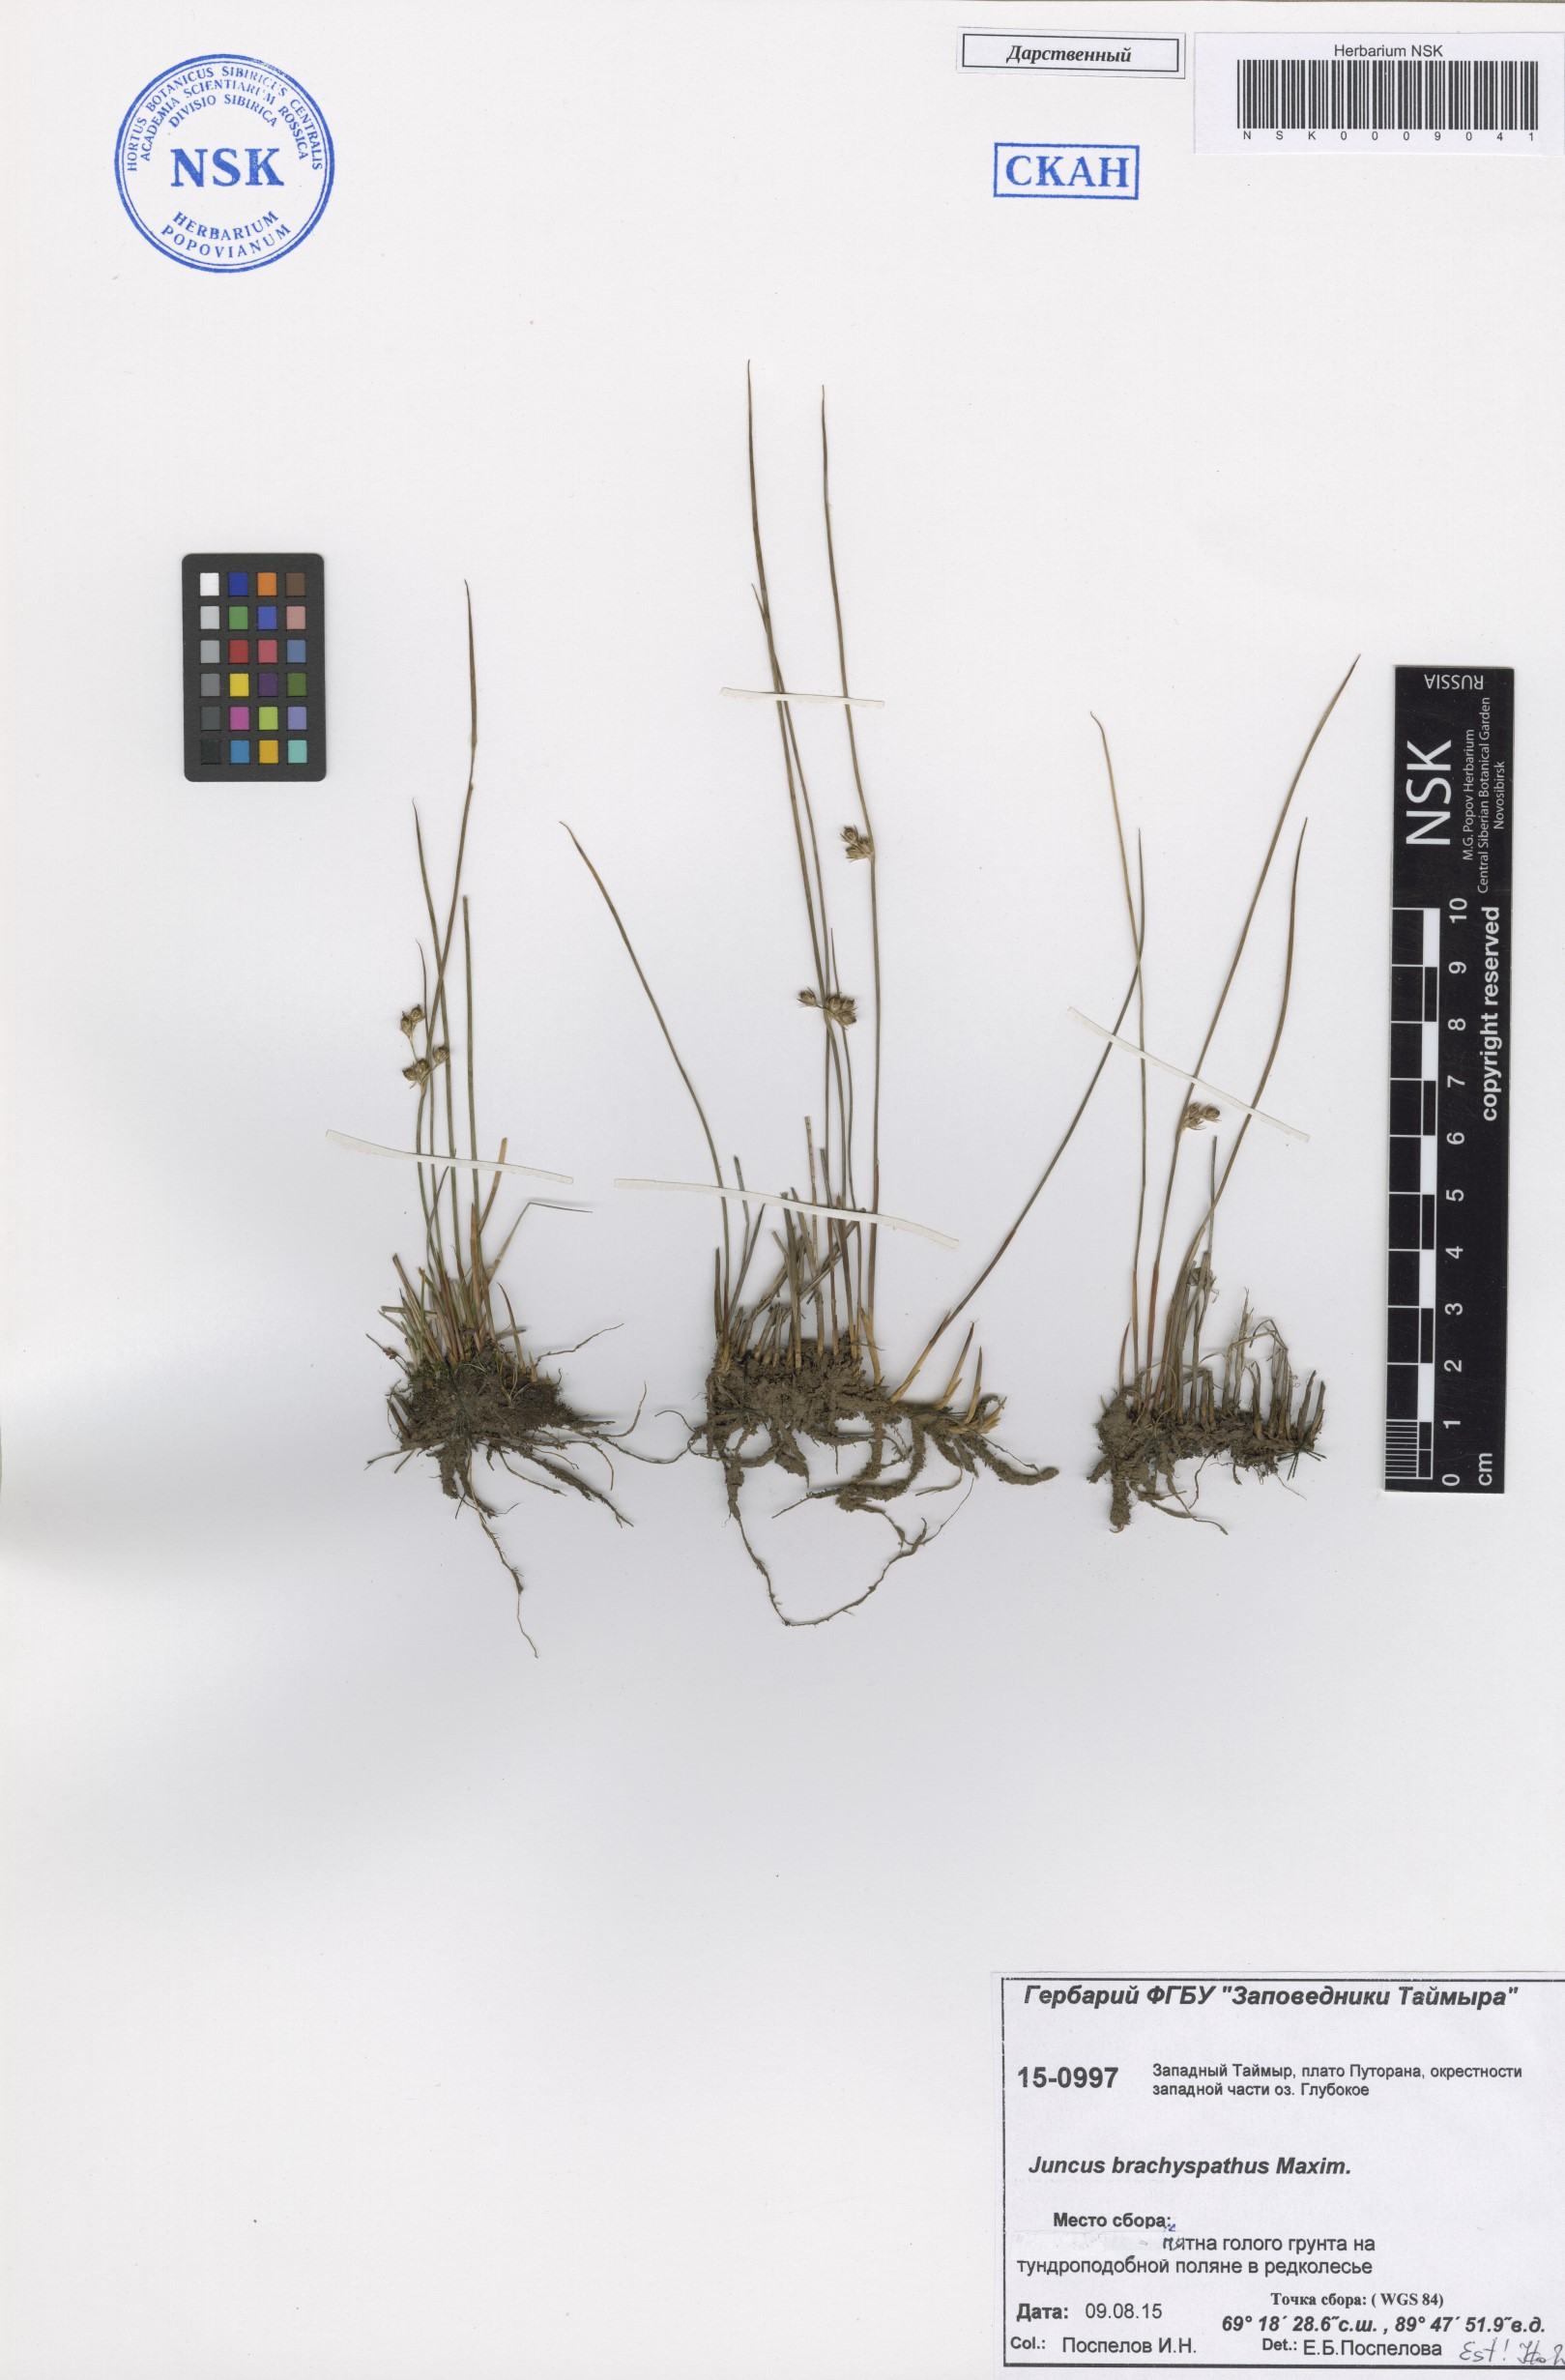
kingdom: Plantae
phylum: Tracheophyta
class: Liliopsida
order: Poales
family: Juncaceae
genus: Juncus
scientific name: Juncus brachyspathus
